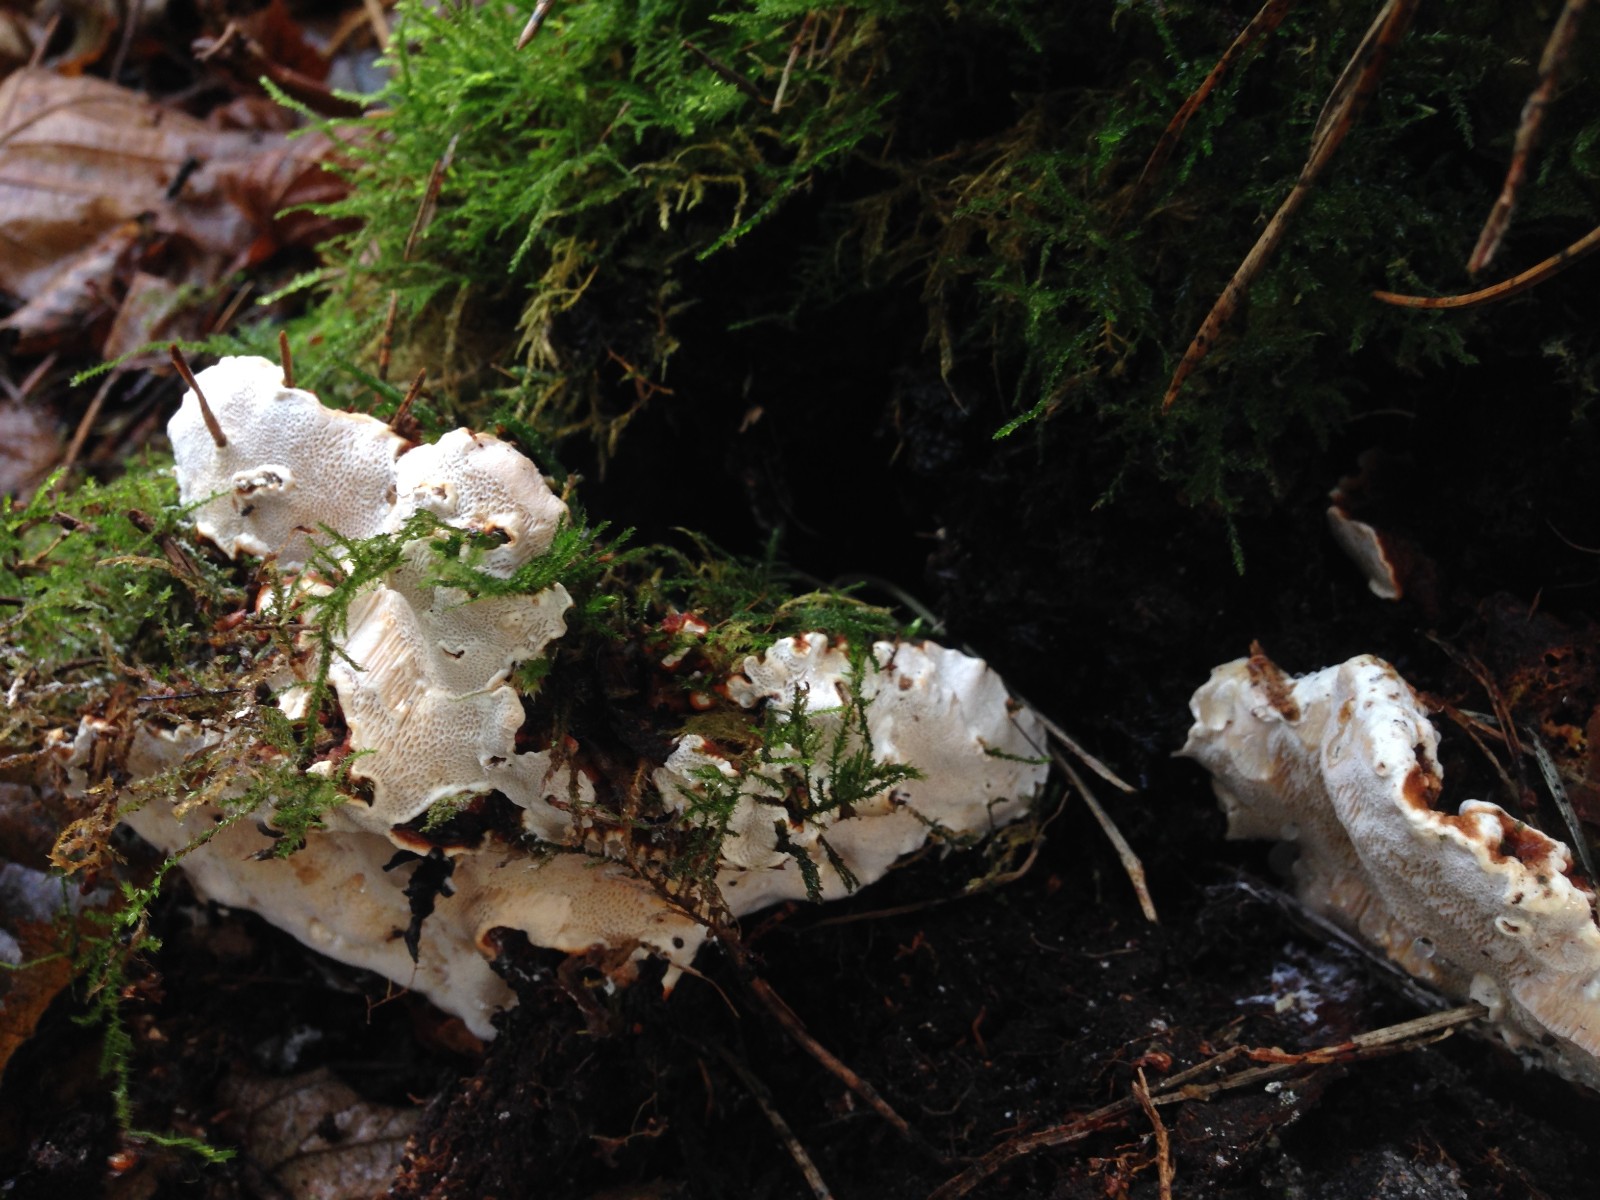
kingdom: Fungi
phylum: Basidiomycota
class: Agaricomycetes
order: Russulales
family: Bondarzewiaceae
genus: Heterobasidion
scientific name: Heterobasidion annosum
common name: almindelig rodfordærver
